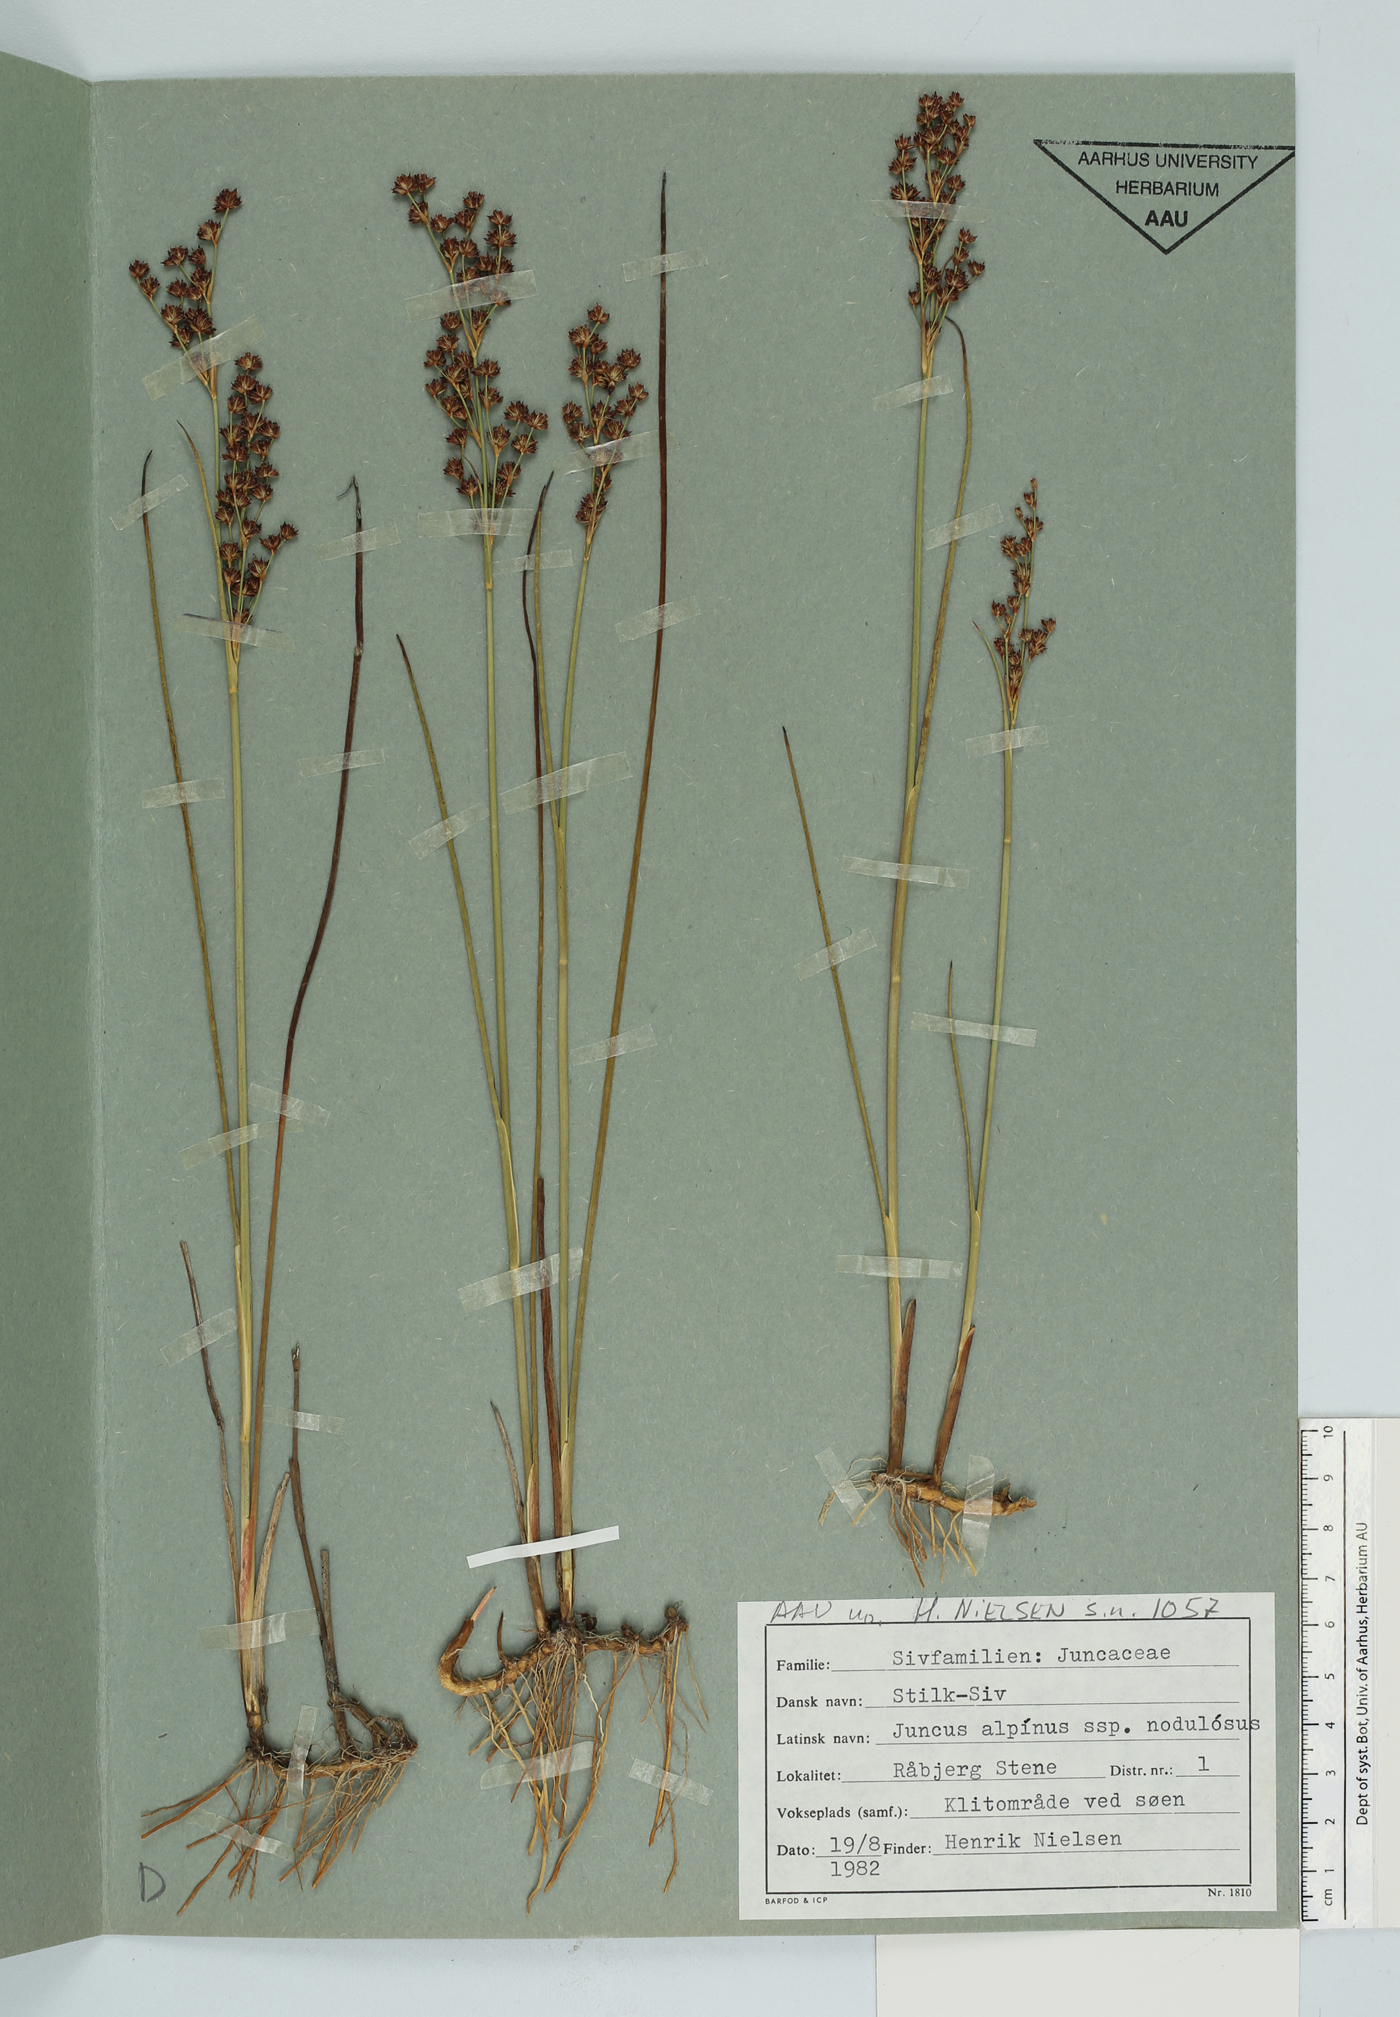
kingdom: Plantae
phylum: Tracheophyta
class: Liliopsida
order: Poales
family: Juncaceae
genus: Juncus
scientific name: Juncus alpinoarticulatus
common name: Alpine rush
